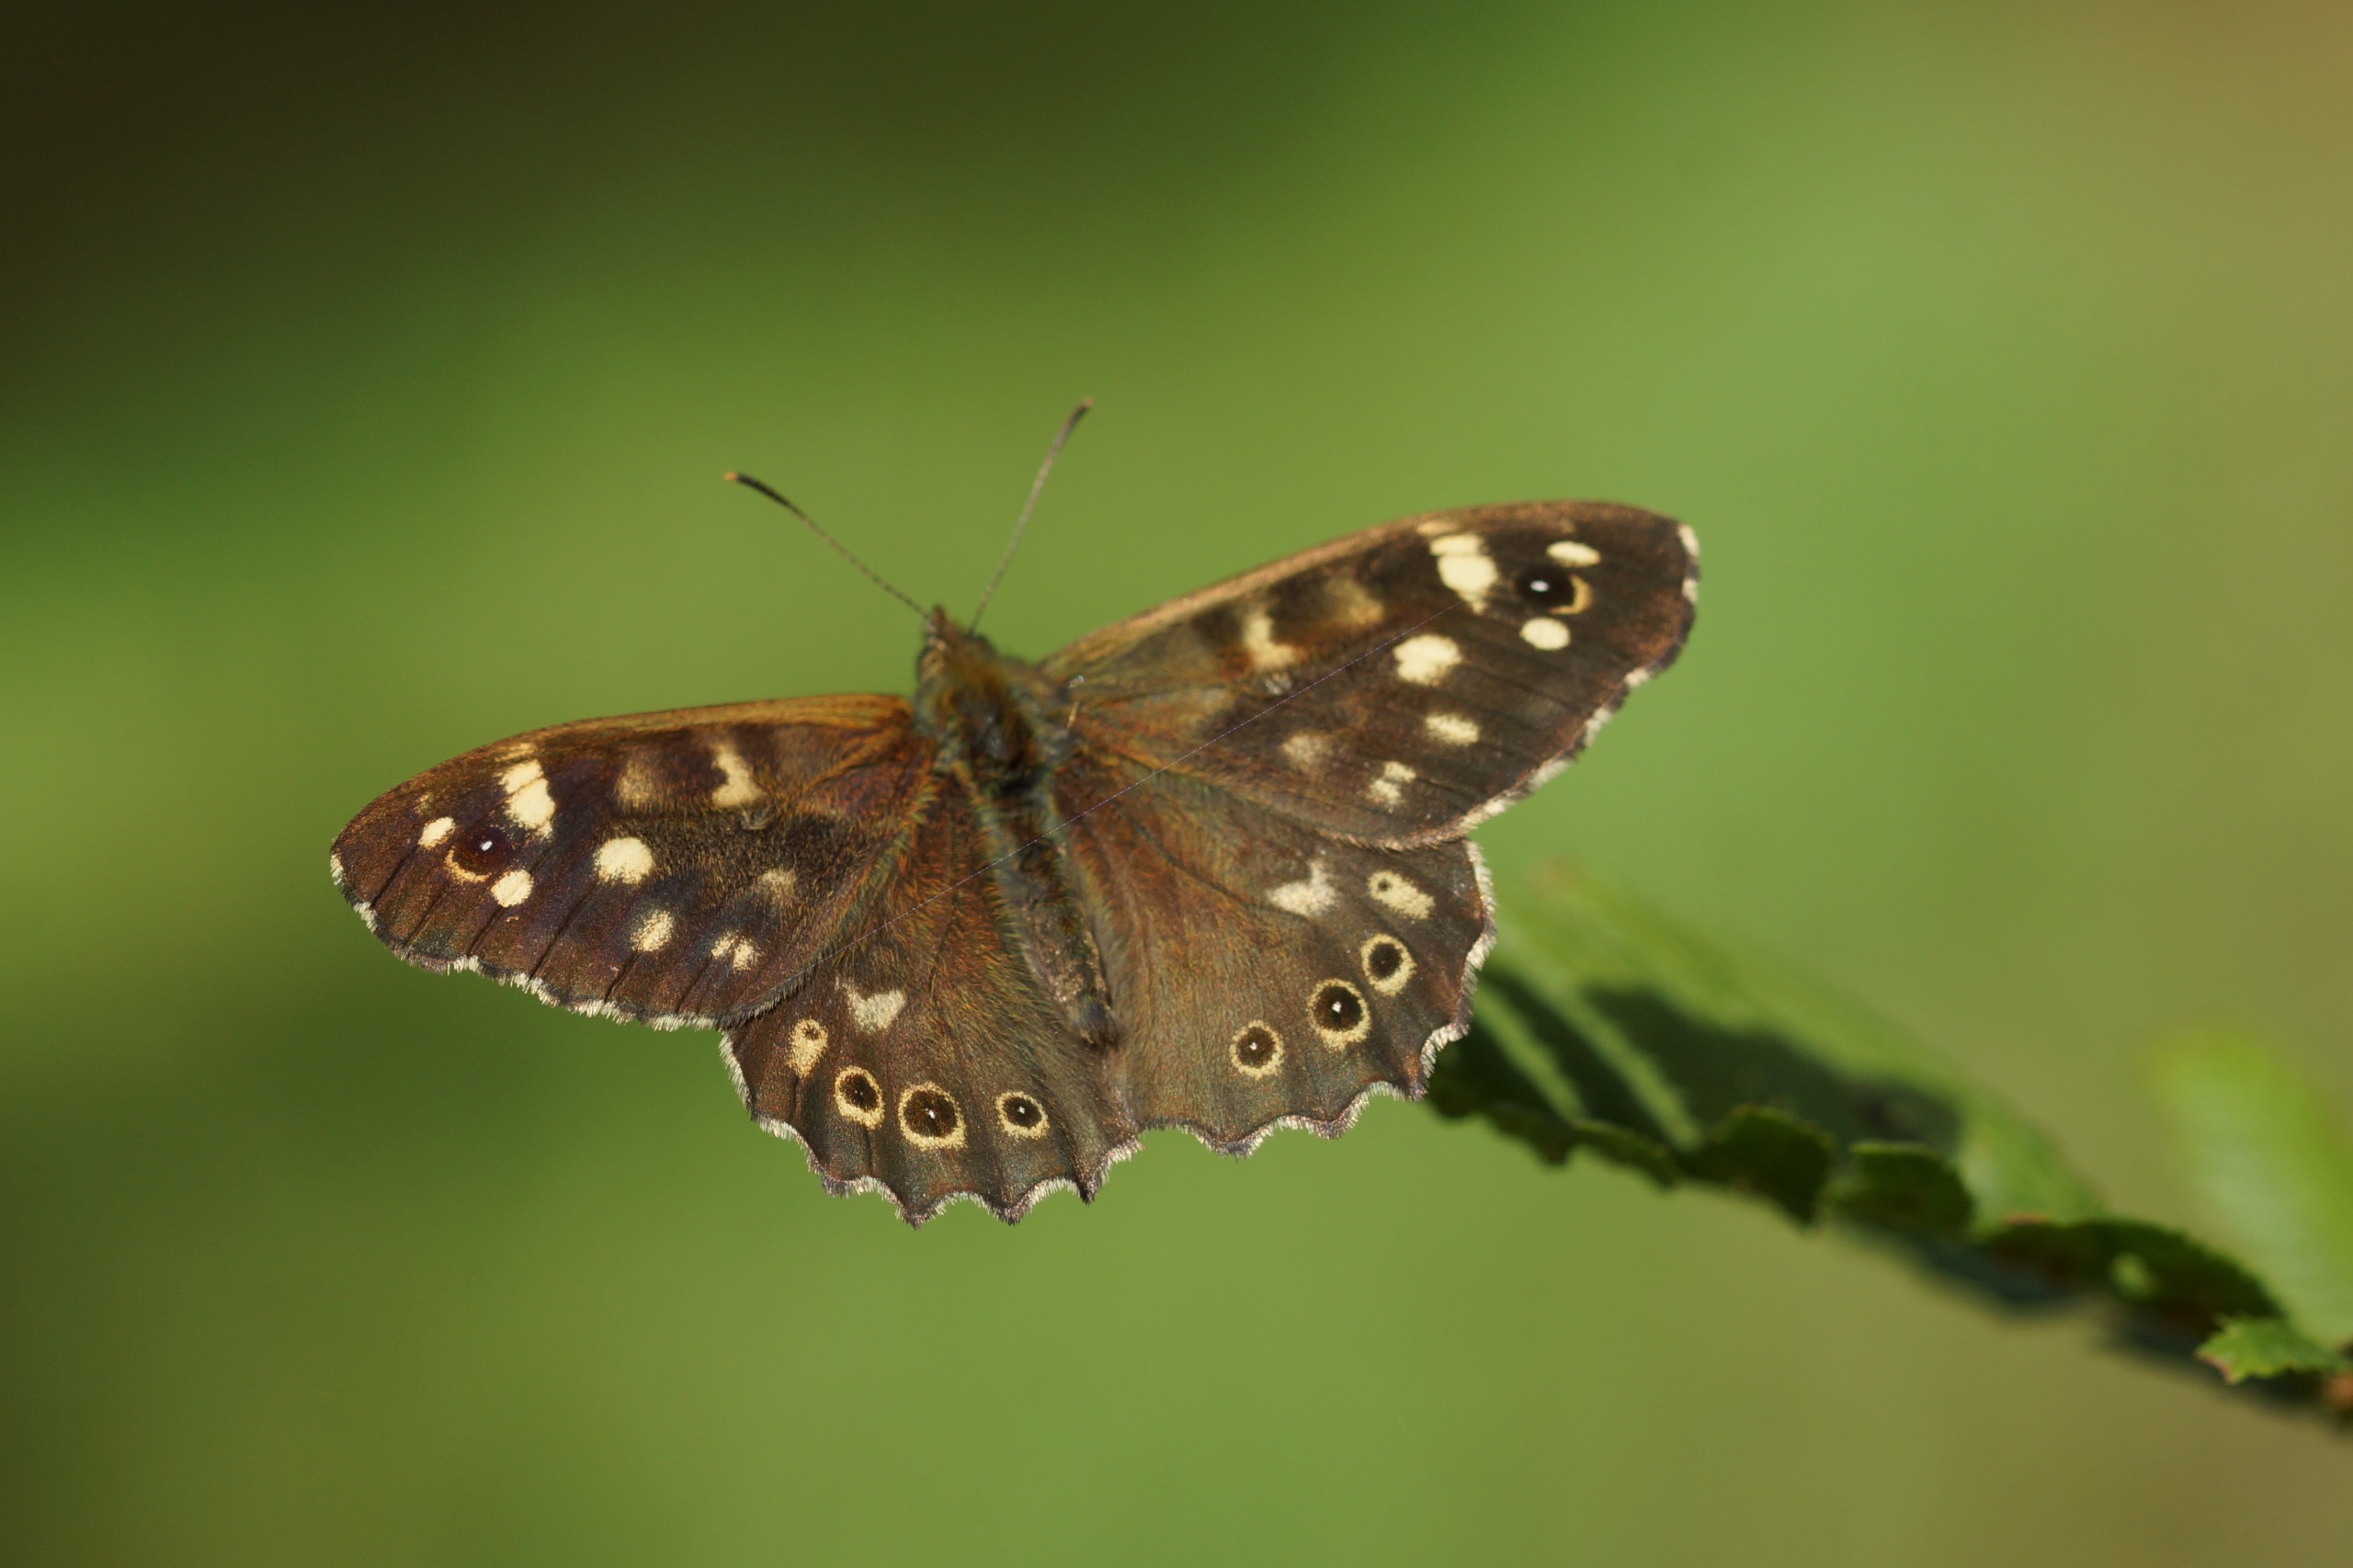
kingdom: Animalia
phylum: Arthropoda
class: Insecta
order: Lepidoptera
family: Nymphalidae
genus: Pararge
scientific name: Pararge aegeria
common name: Skovrandøje
